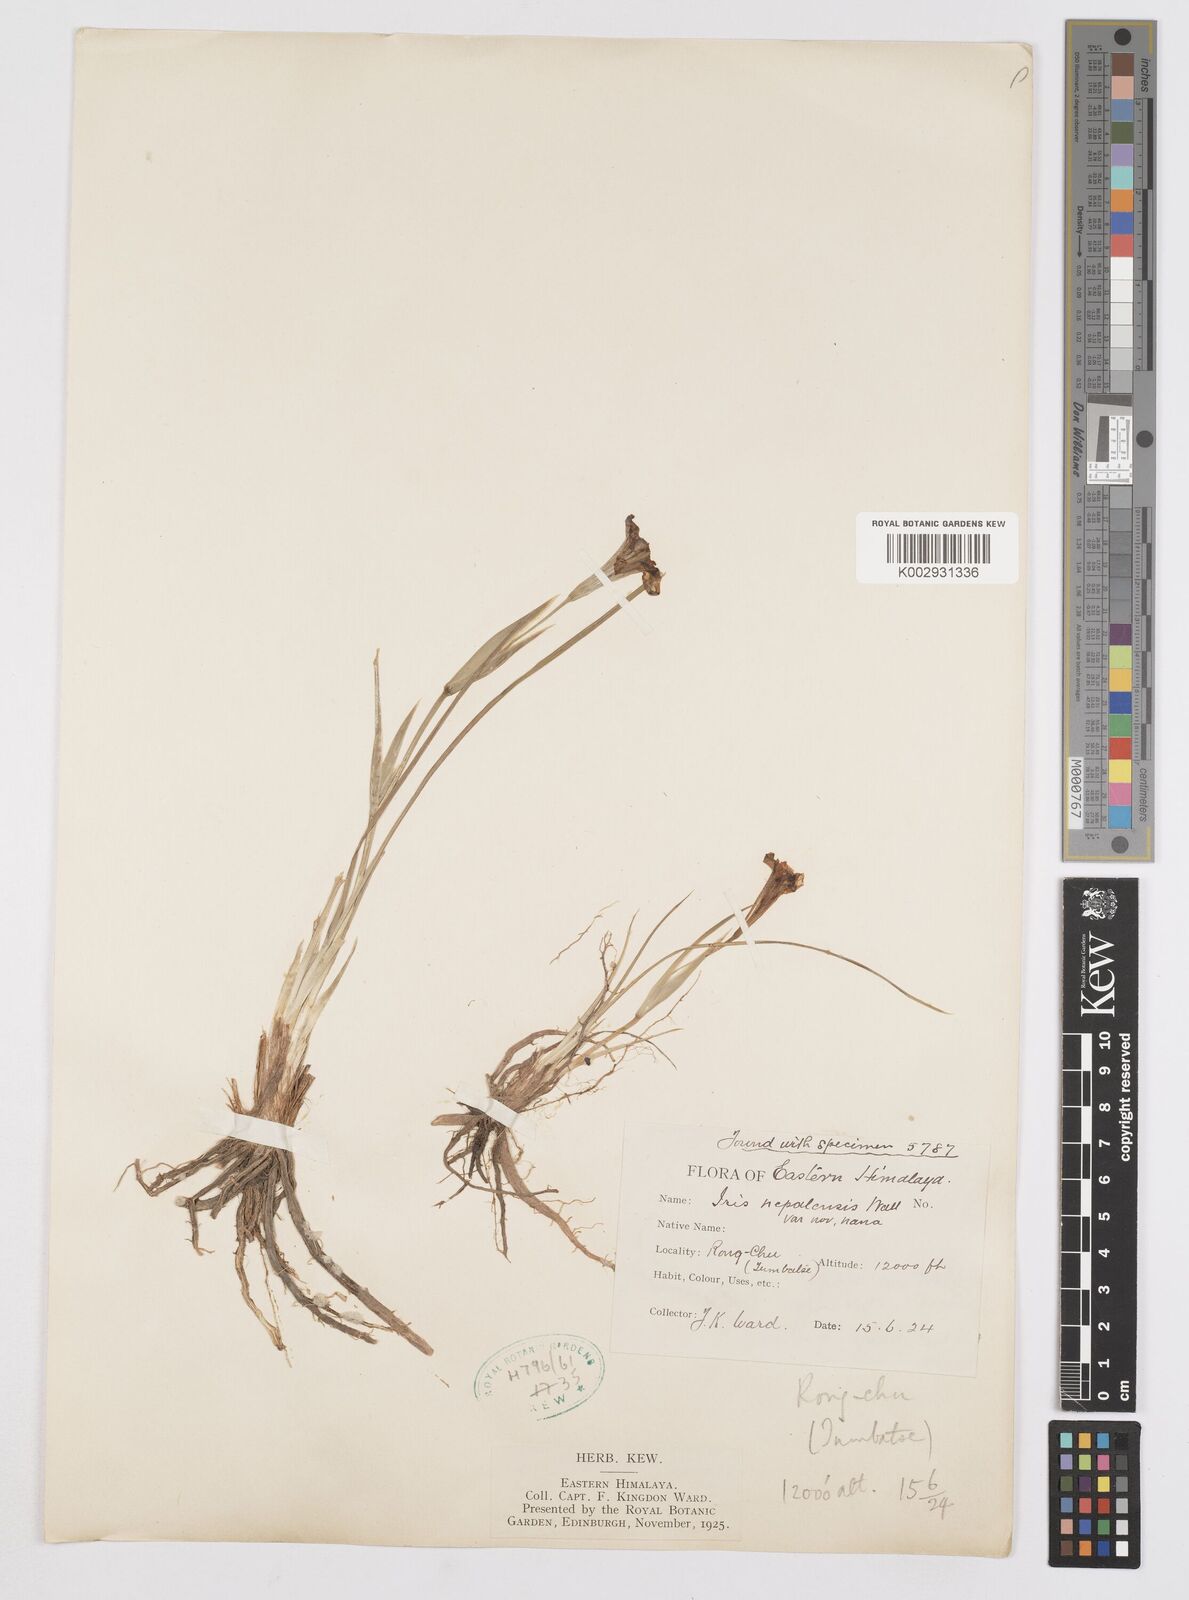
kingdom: Plantae
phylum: Tracheophyta
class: Liliopsida
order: Asparagales
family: Iridaceae
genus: Iris
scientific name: Iris decora
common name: Nepal iris
